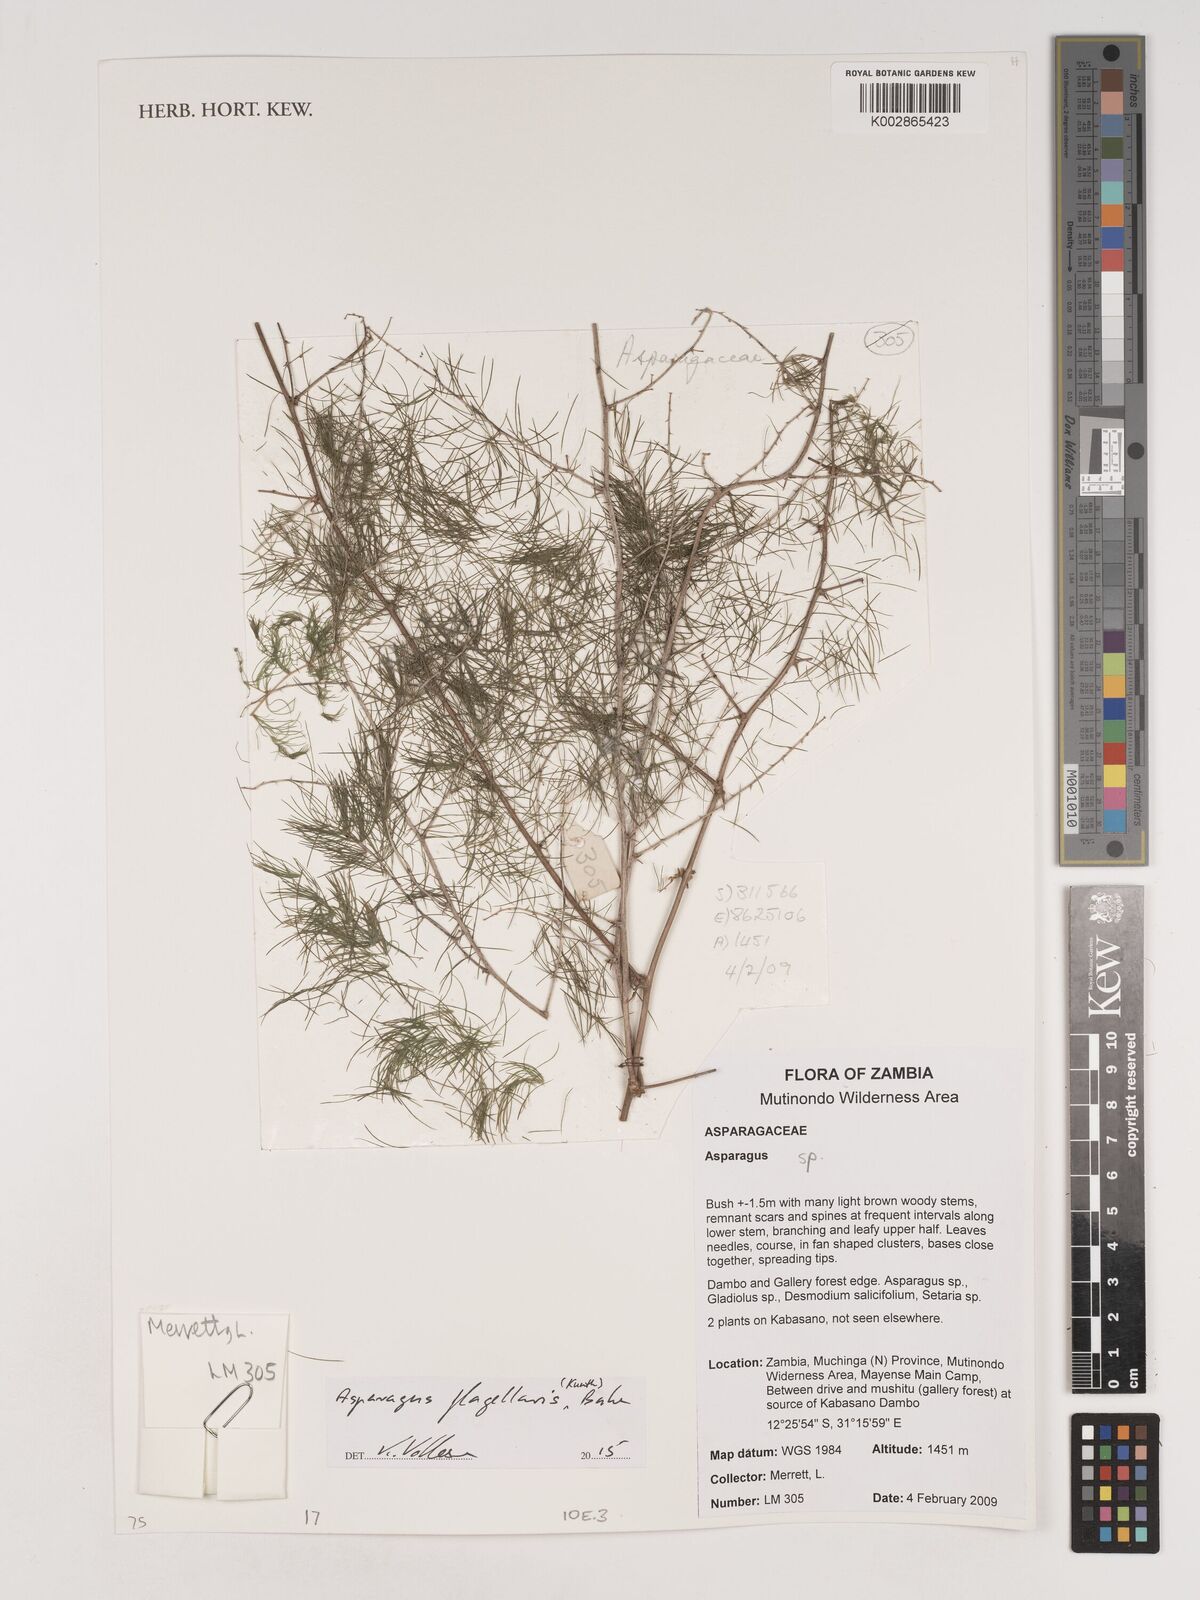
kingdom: Plantae
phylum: Tracheophyta
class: Liliopsida
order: Asparagales
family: Asparagaceae
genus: Asparagus
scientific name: Asparagus flagellaris
